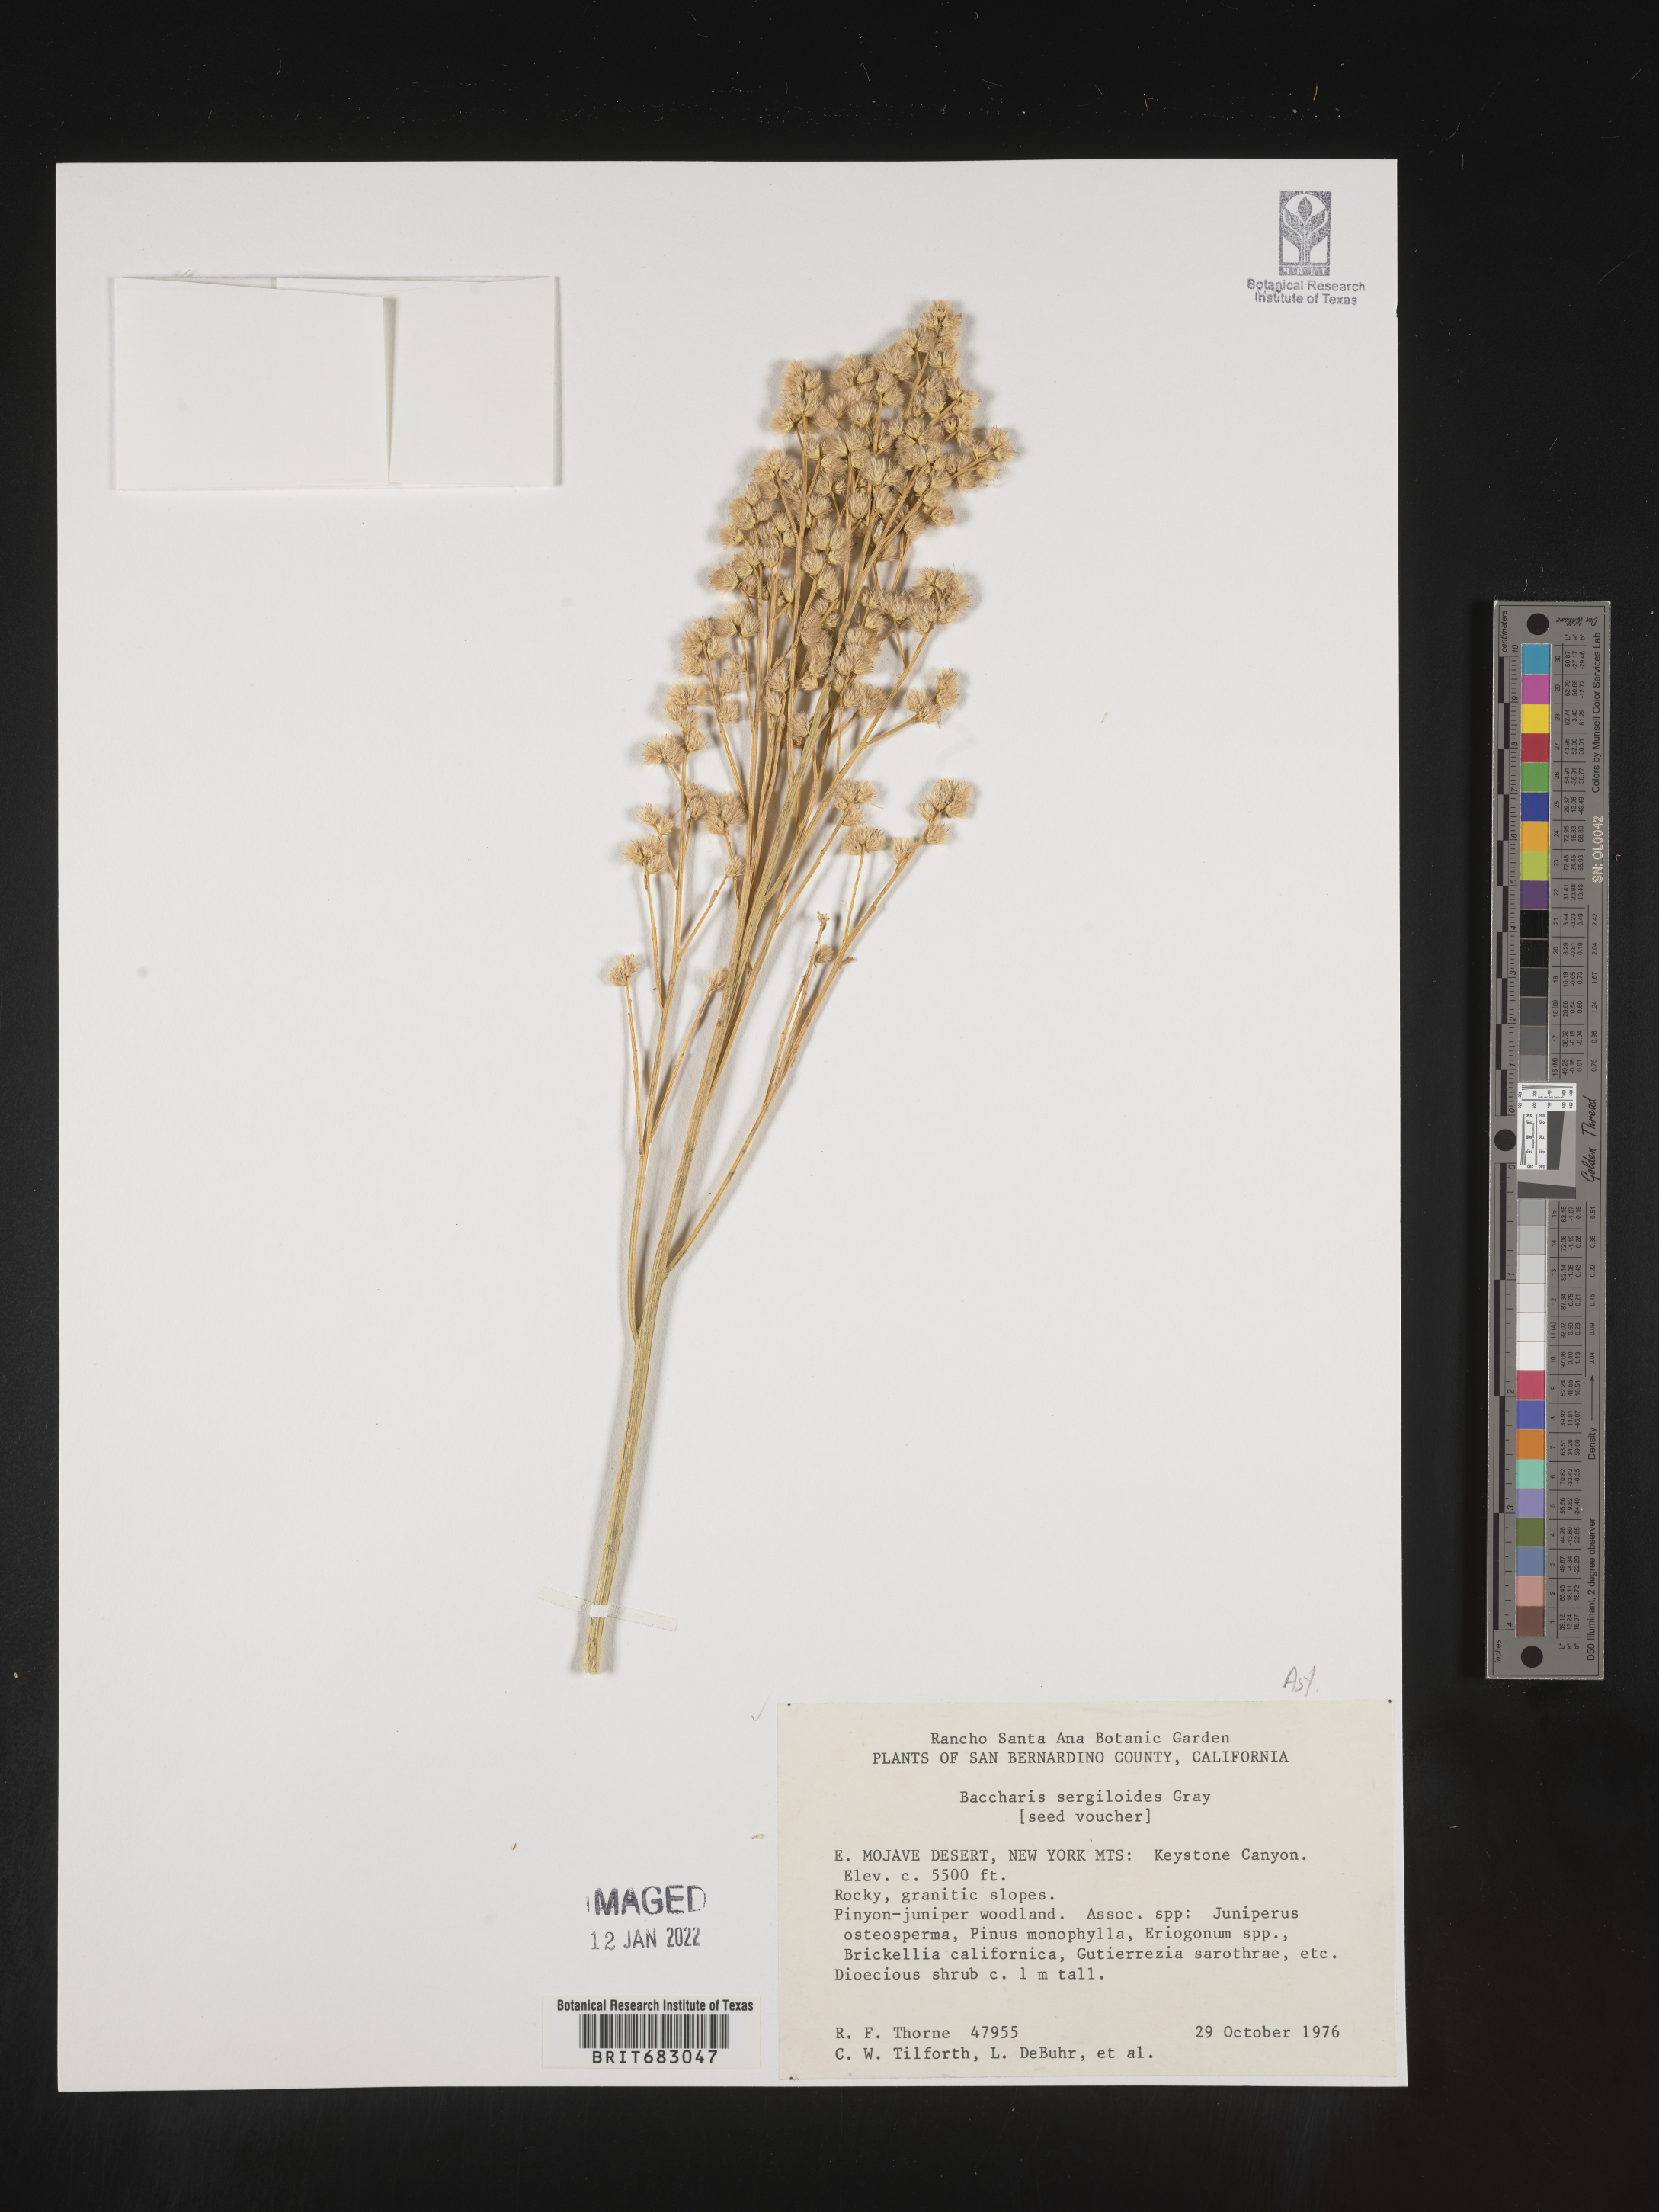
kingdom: Plantae
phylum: Tracheophyta
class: Magnoliopsida
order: Asterales
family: Asteraceae
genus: Baccharis
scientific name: Baccharis sergiloides
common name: Desert baccharis
